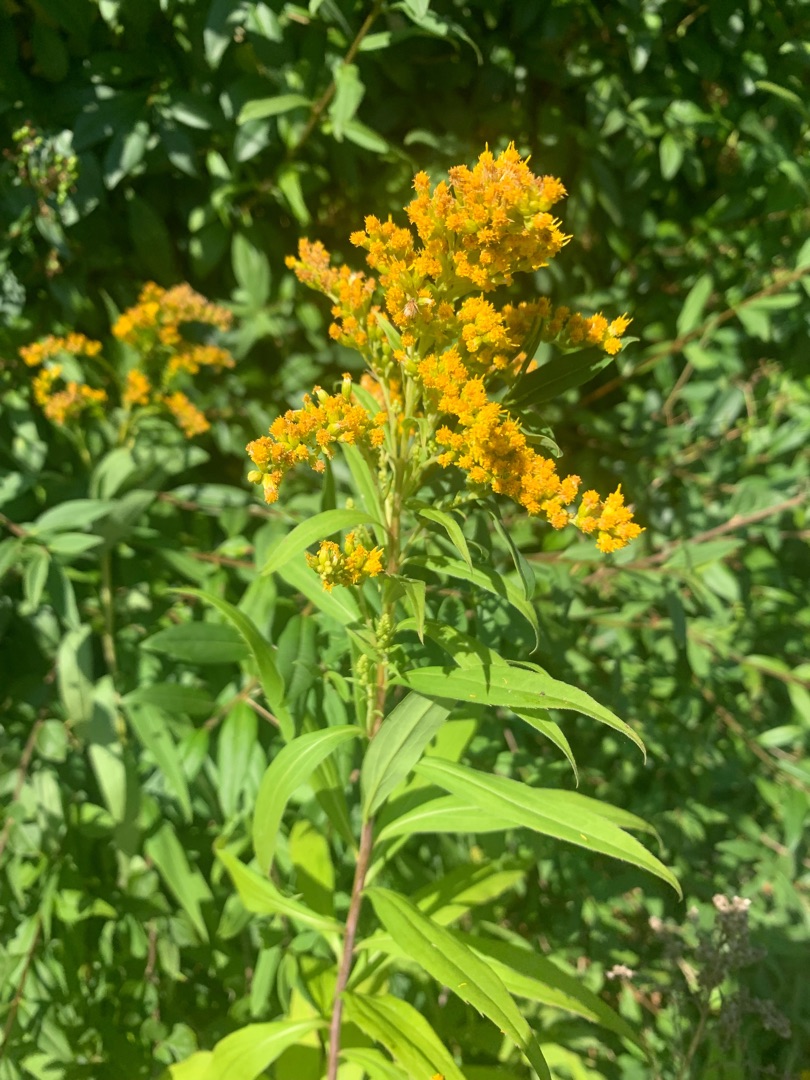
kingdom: Plantae
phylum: Tracheophyta
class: Magnoliopsida
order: Asterales
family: Asteraceae
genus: Solidago
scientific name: Solidago gigantea
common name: Sildig gyldenris
